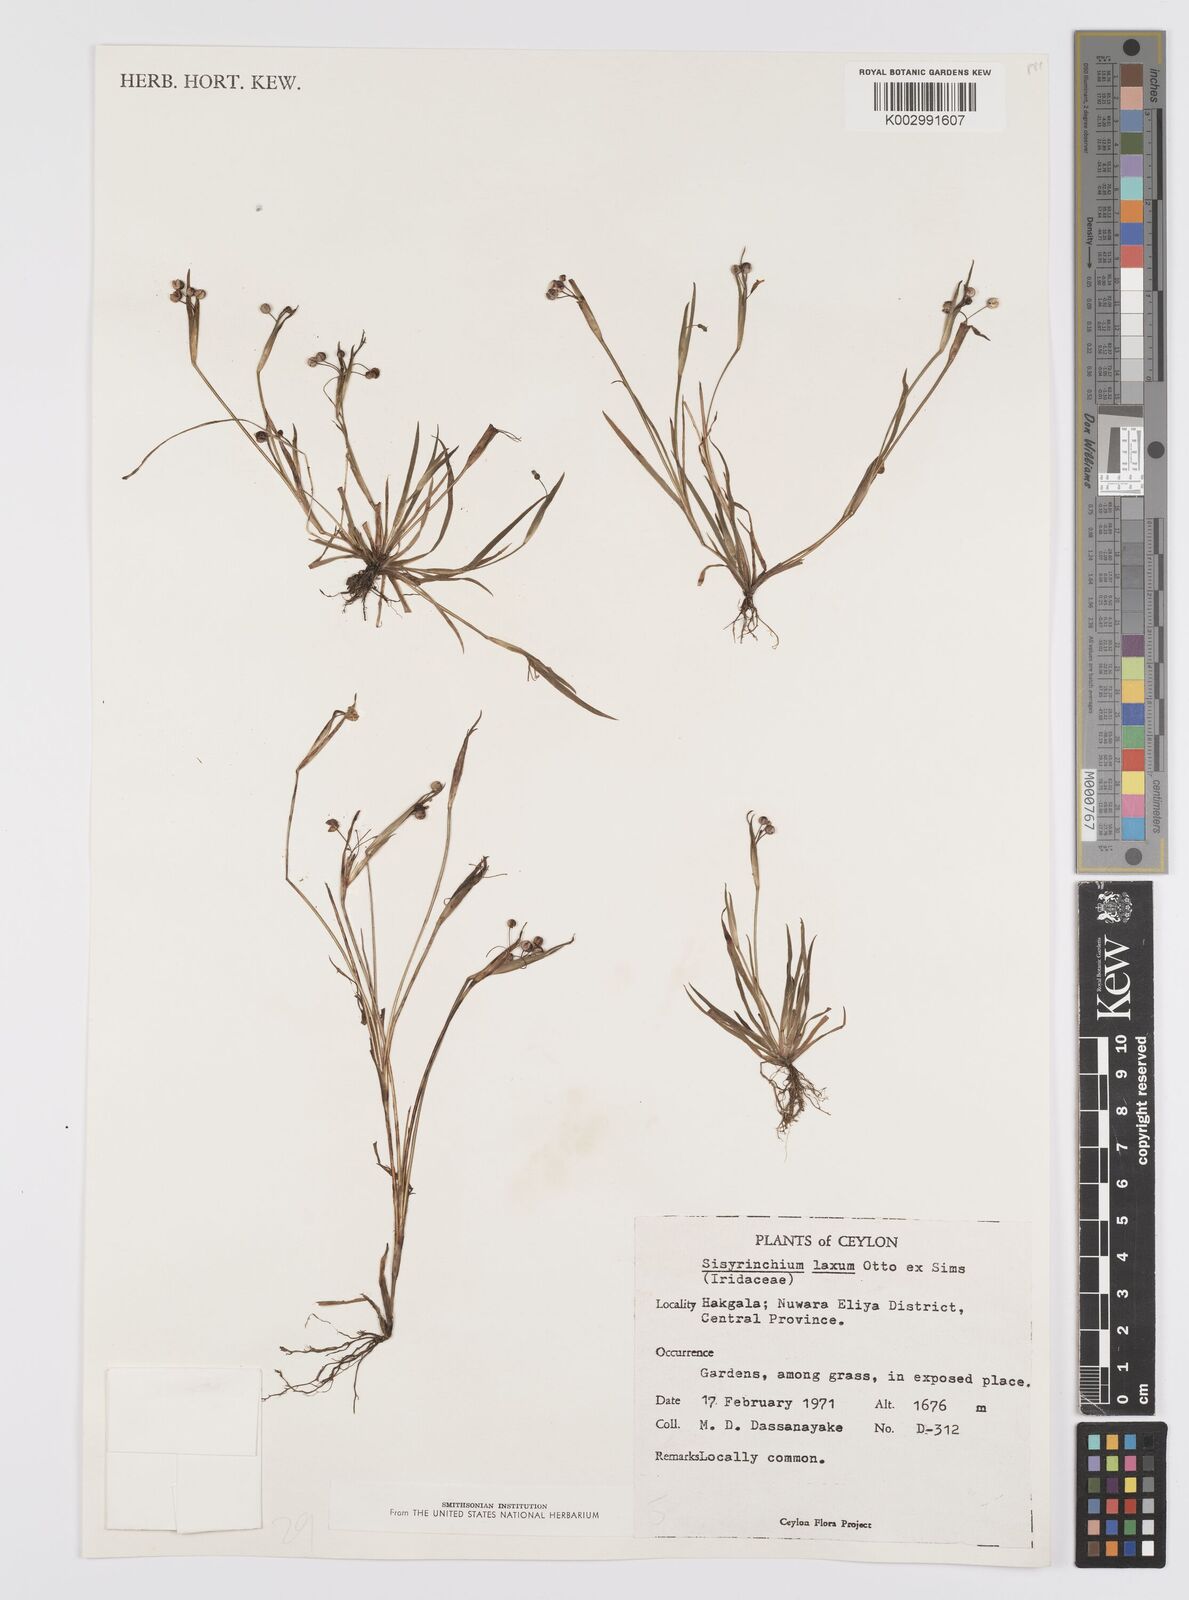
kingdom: Plantae
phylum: Tracheophyta
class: Liliopsida
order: Asparagales
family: Iridaceae
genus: Sisyrinchium
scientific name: Sisyrinchium laxum
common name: Veined yellow-eyed-grass
